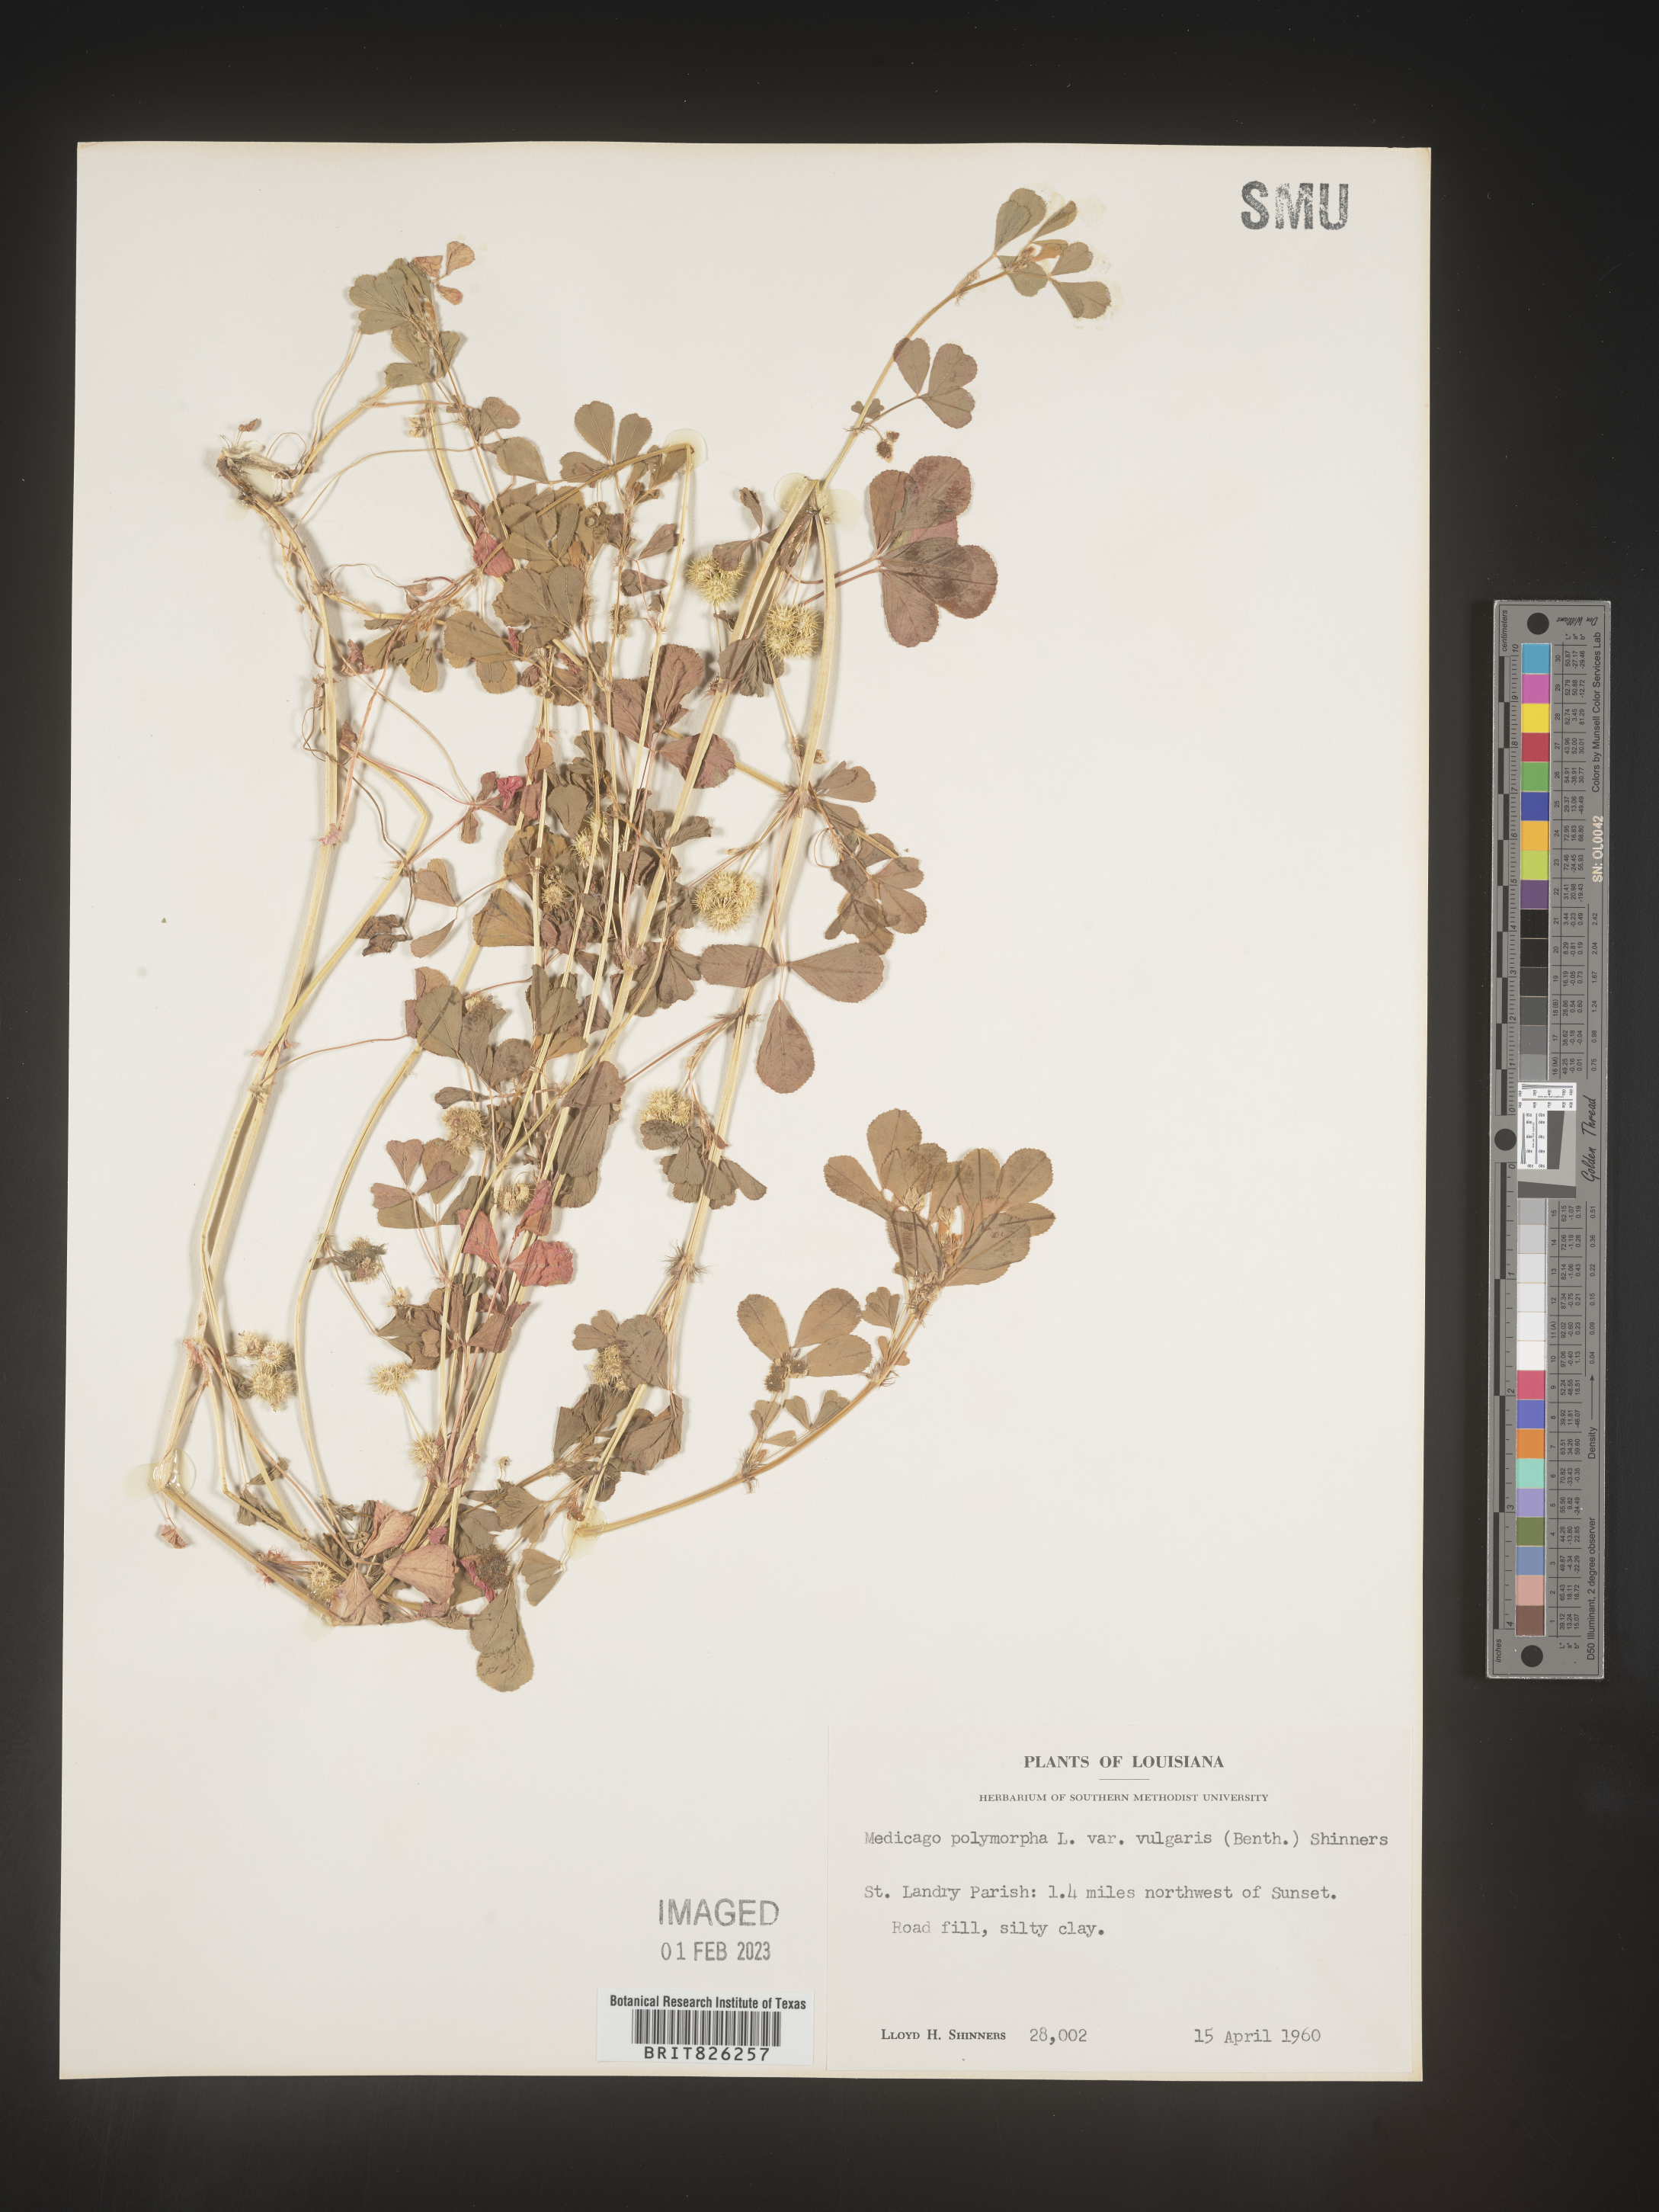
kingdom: Plantae
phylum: Tracheophyta
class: Magnoliopsida
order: Fabales
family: Fabaceae
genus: Medicago
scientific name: Medicago polymorpha
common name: Burclover
